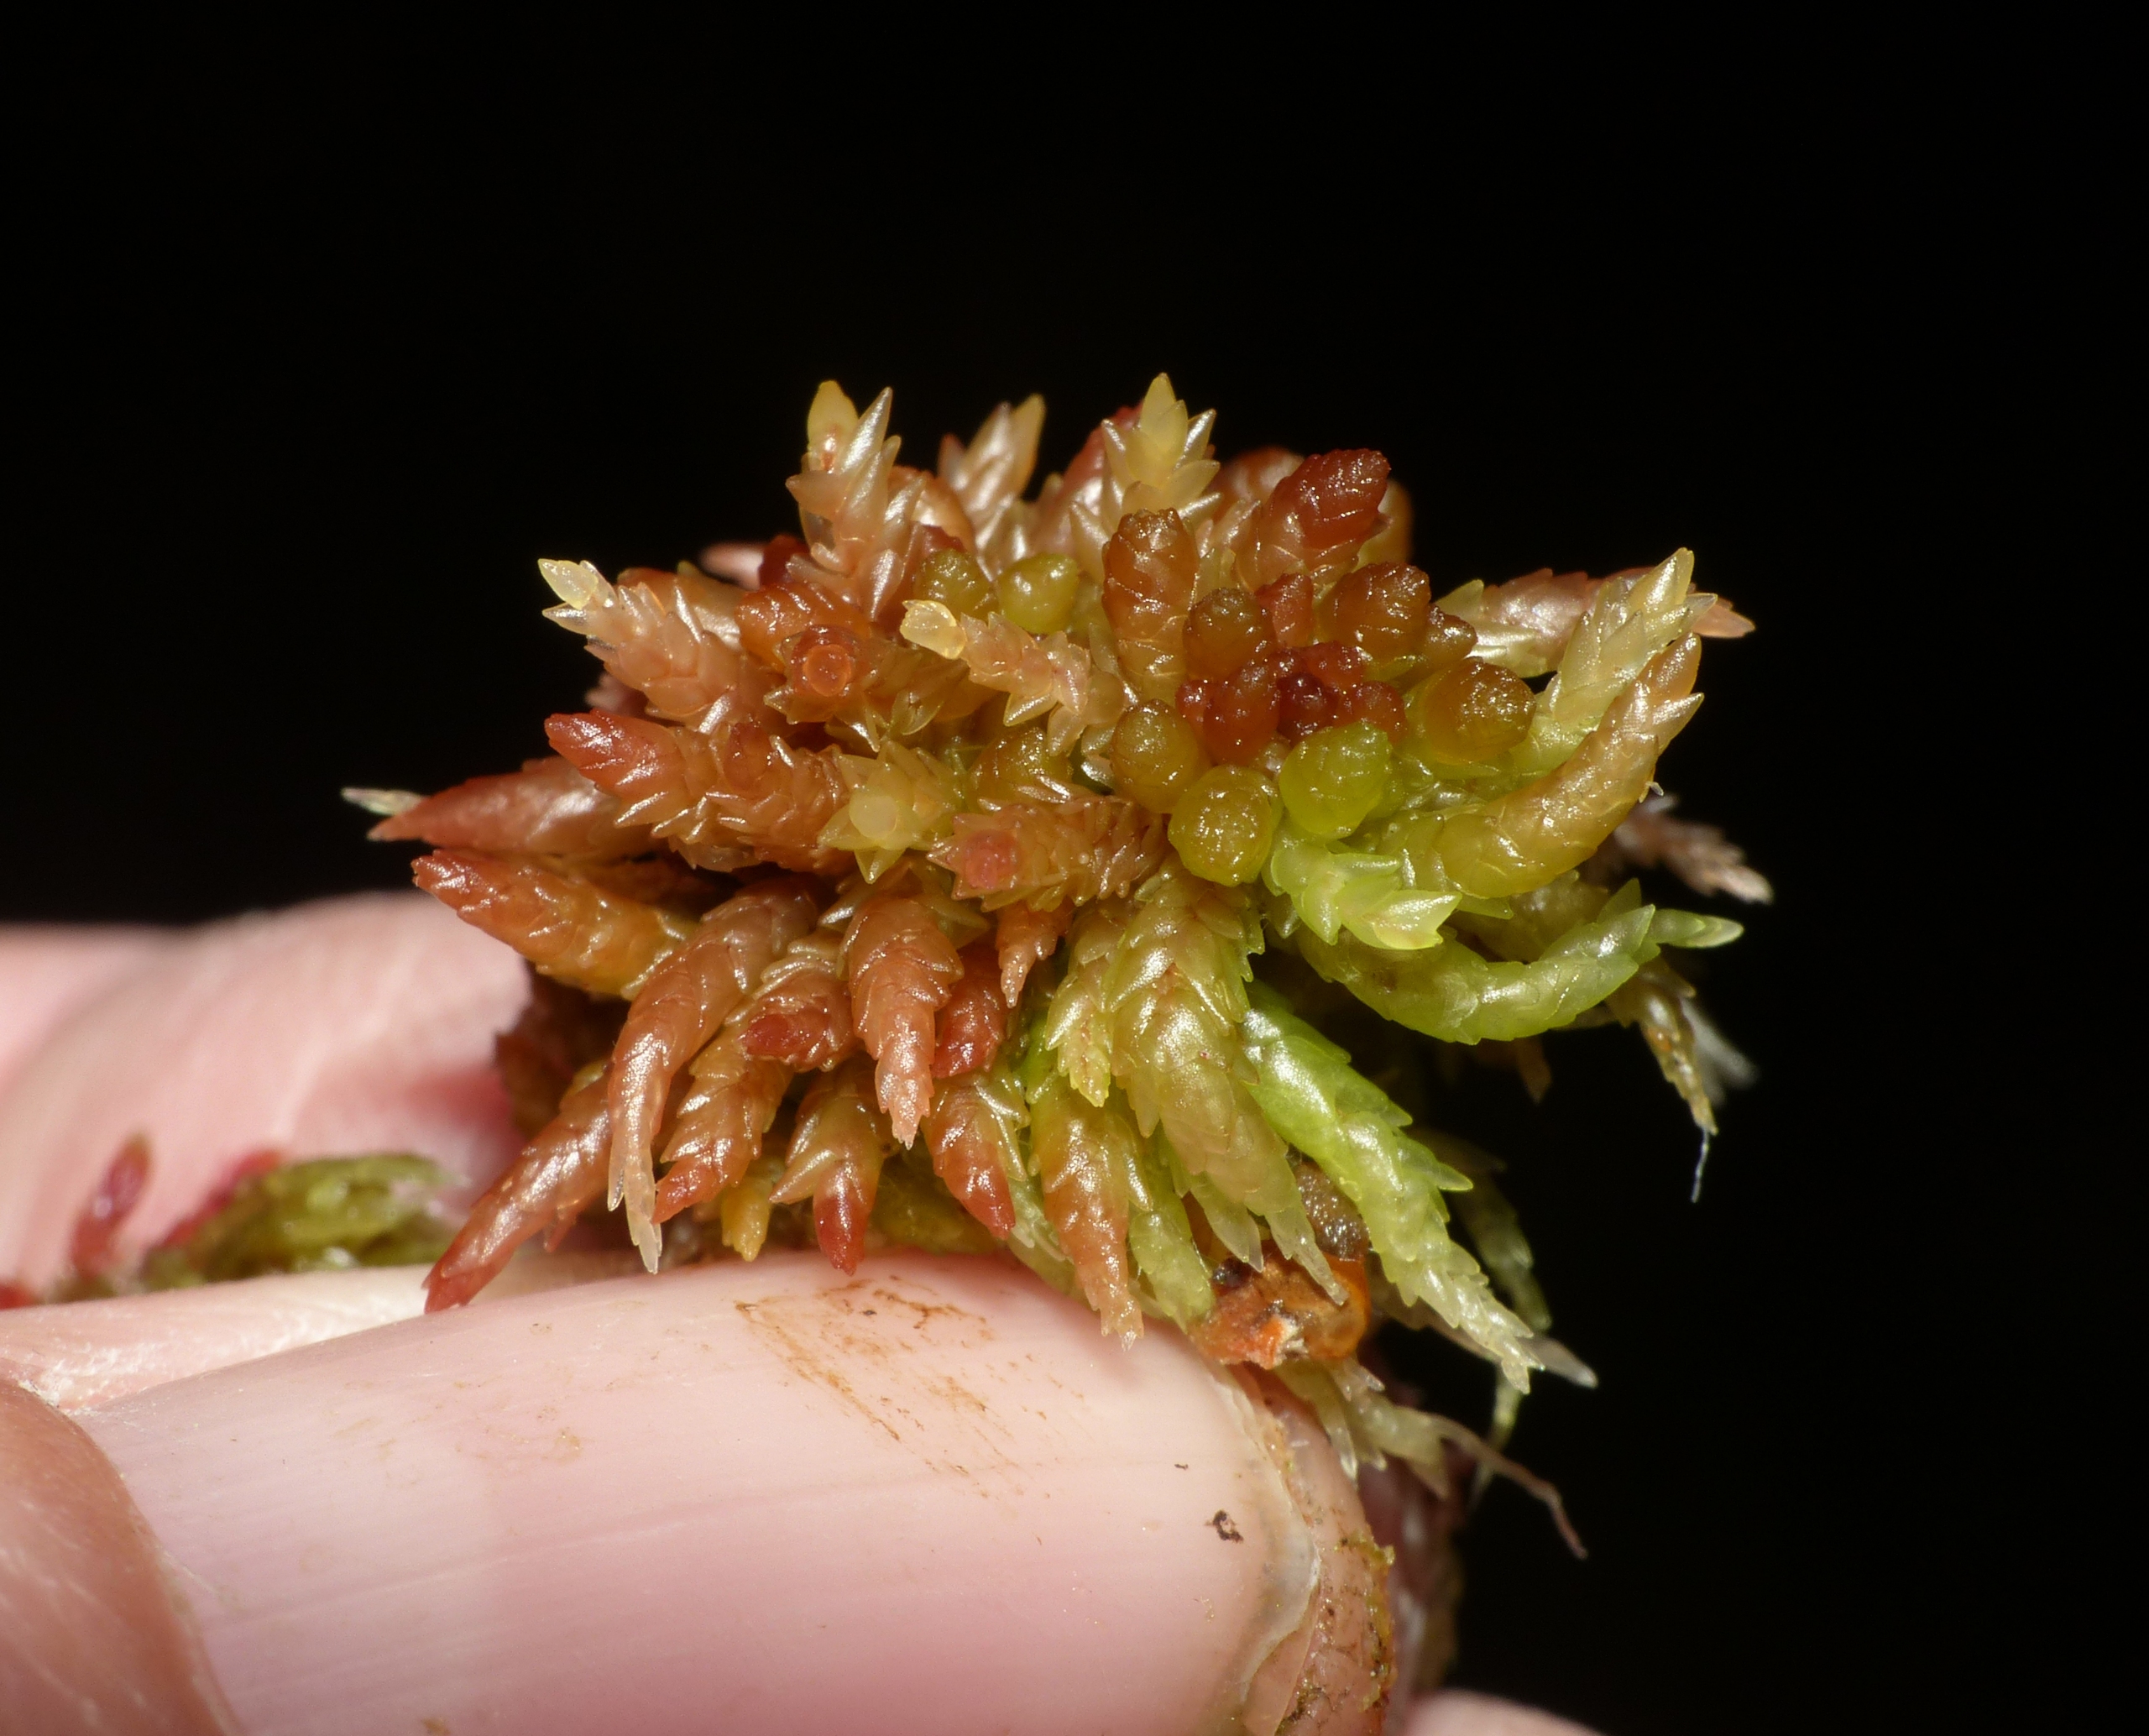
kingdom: Plantae
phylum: Bryophyta
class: Sphagnopsida
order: Sphagnales
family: Sphagnaceae
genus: Sphagnum
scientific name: Sphagnum divinum
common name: Rød tørvemos (delvist)
